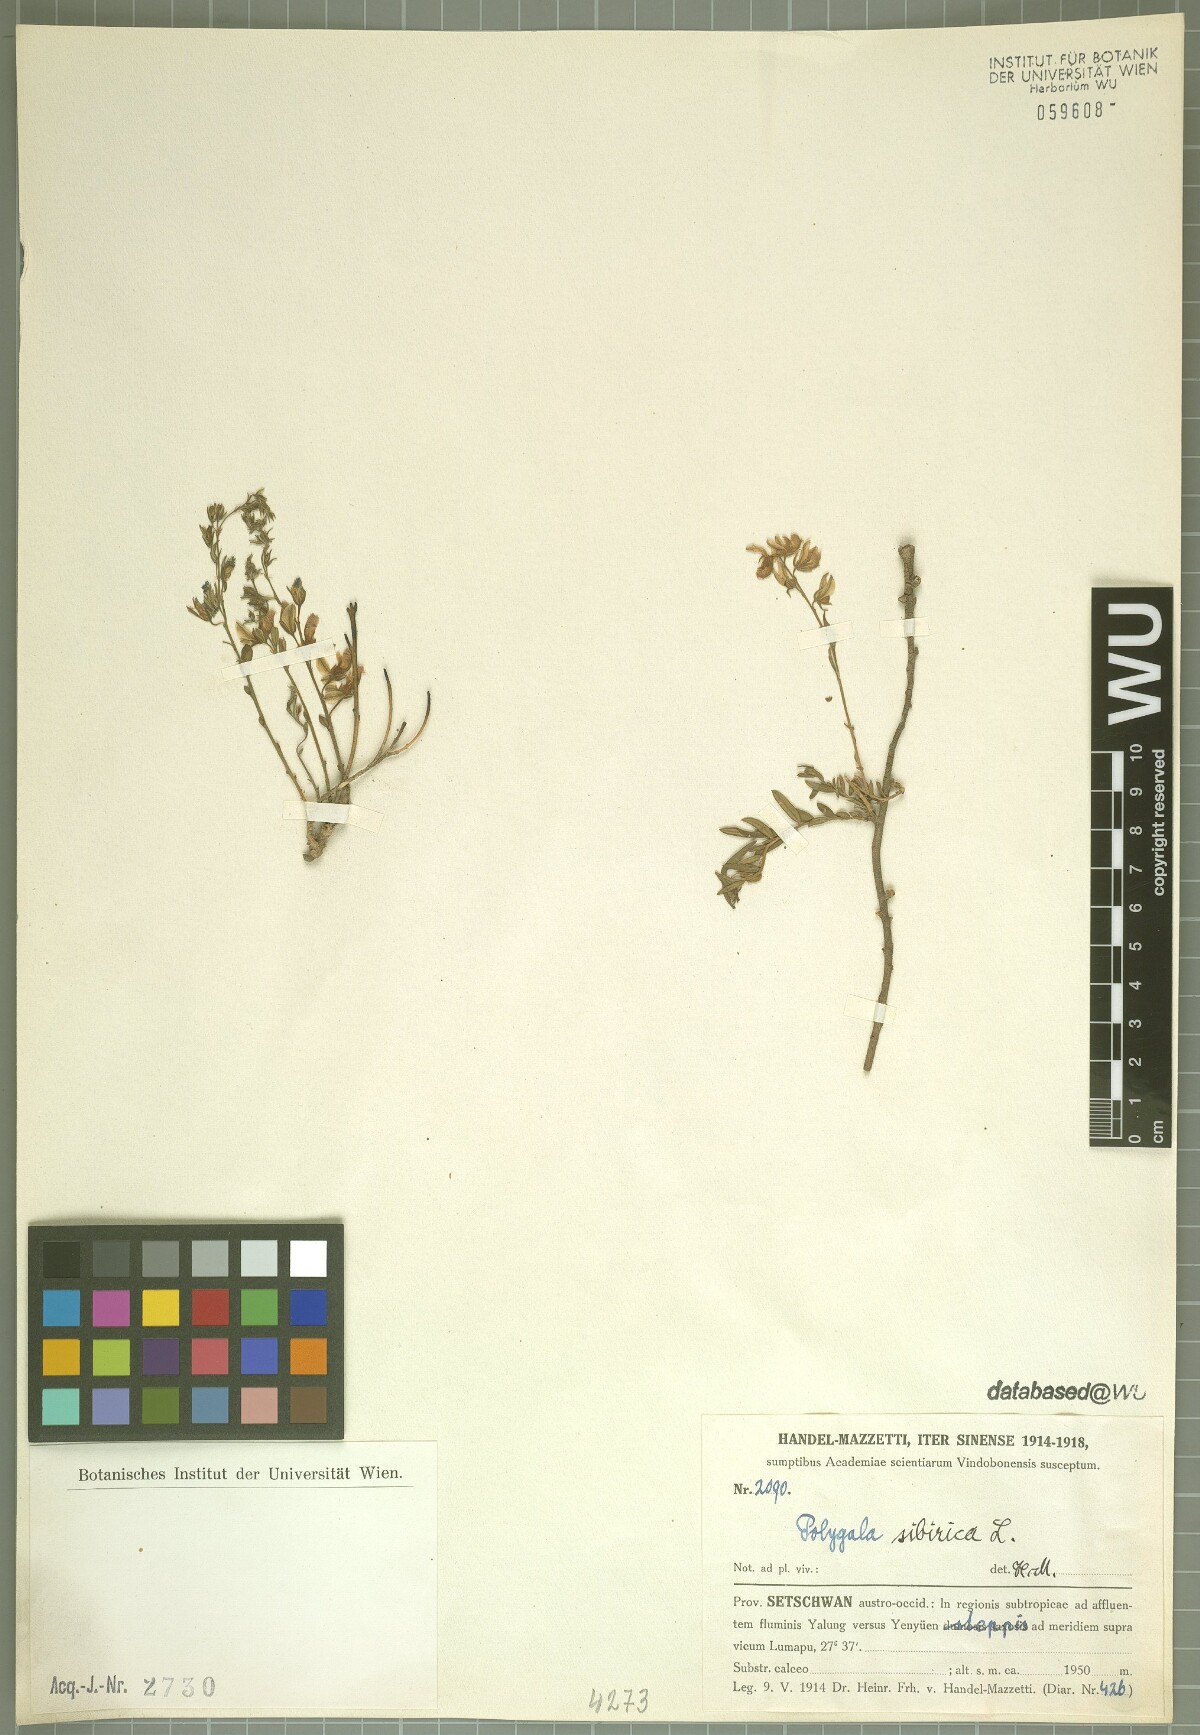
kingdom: Plantae
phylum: Tracheophyta
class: Magnoliopsida
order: Fabales
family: Polygalaceae
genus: Polygala
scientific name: Polygala sibirica
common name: Siberian polygala
